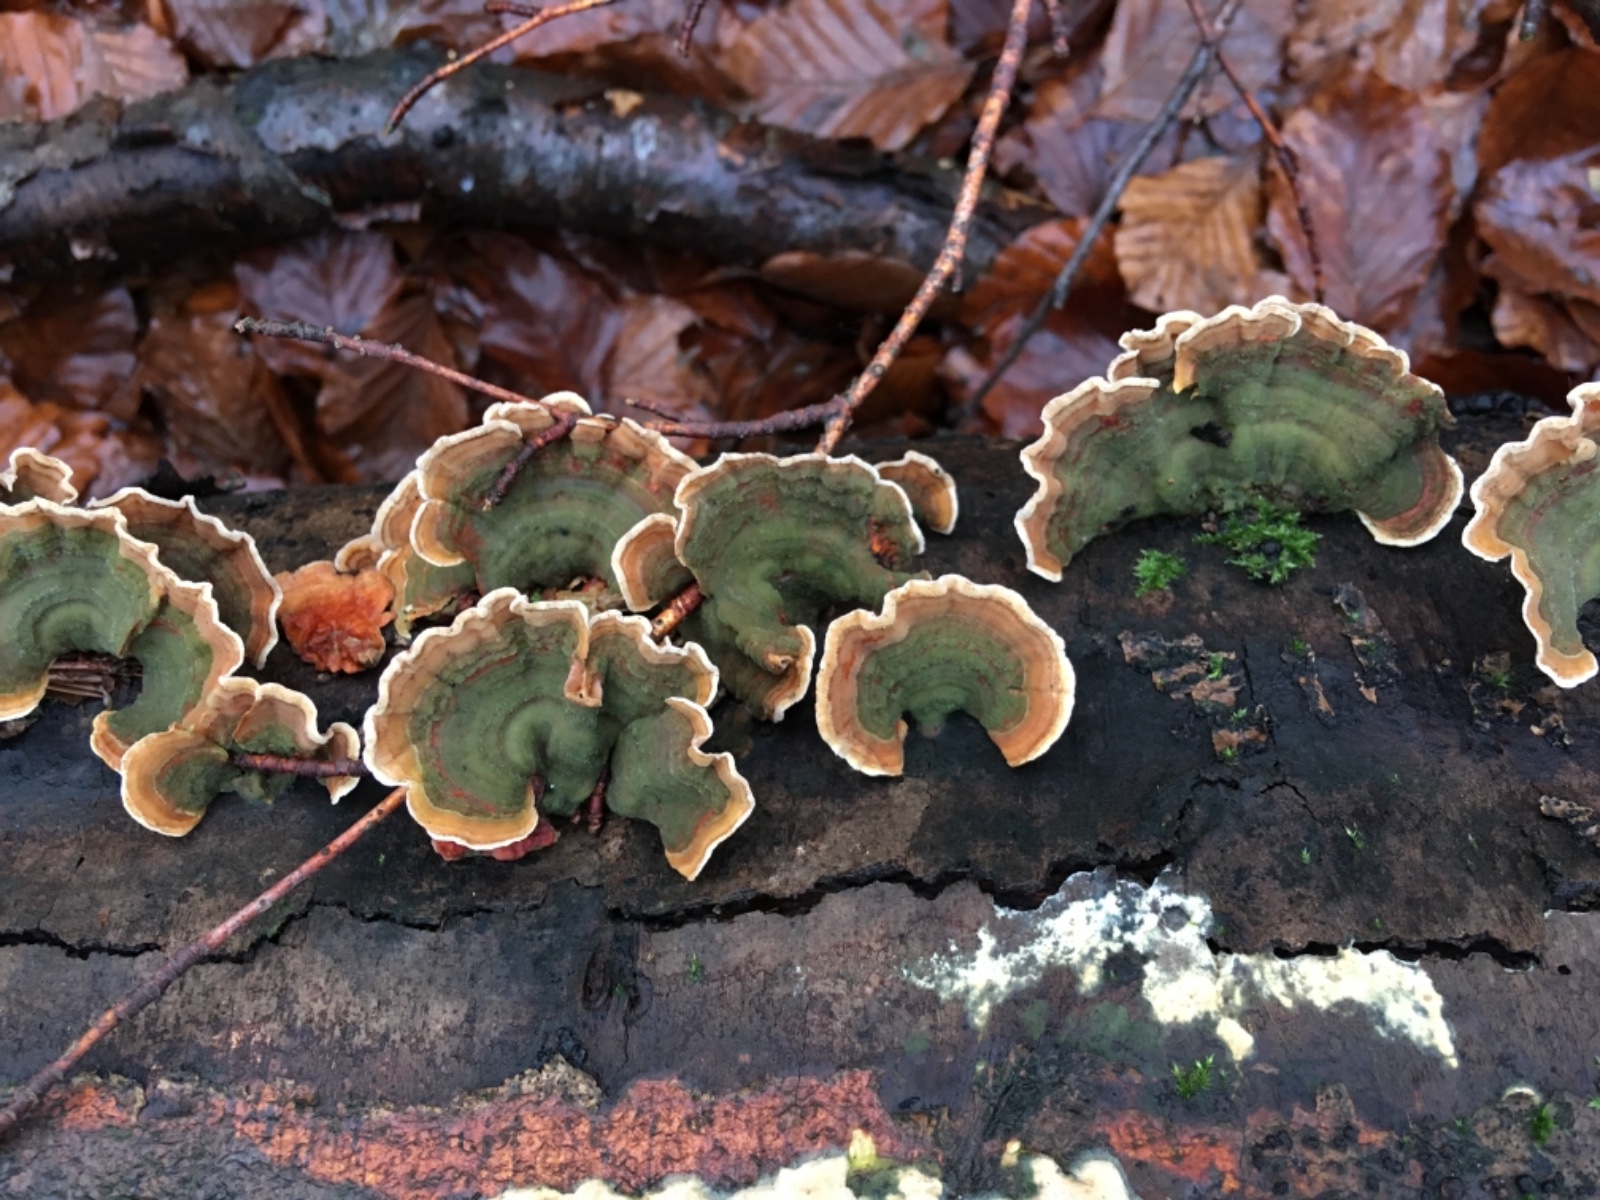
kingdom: Fungi
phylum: Basidiomycota
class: Agaricomycetes
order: Russulales
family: Stereaceae
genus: Stereum
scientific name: Stereum subtomentosum
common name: smuk lædersvamp
